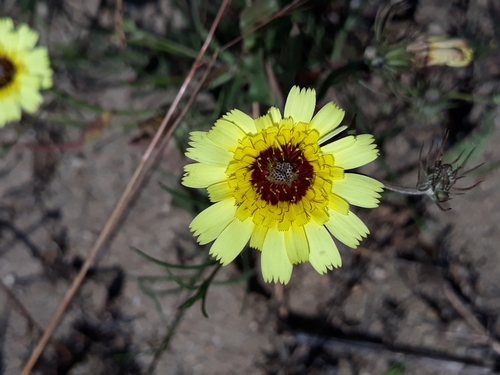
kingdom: Plantae
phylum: Tracheophyta
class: Magnoliopsida
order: Asterales
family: Asteraceae
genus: Tolpis
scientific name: Tolpis barbata
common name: Yellow hawkweed
